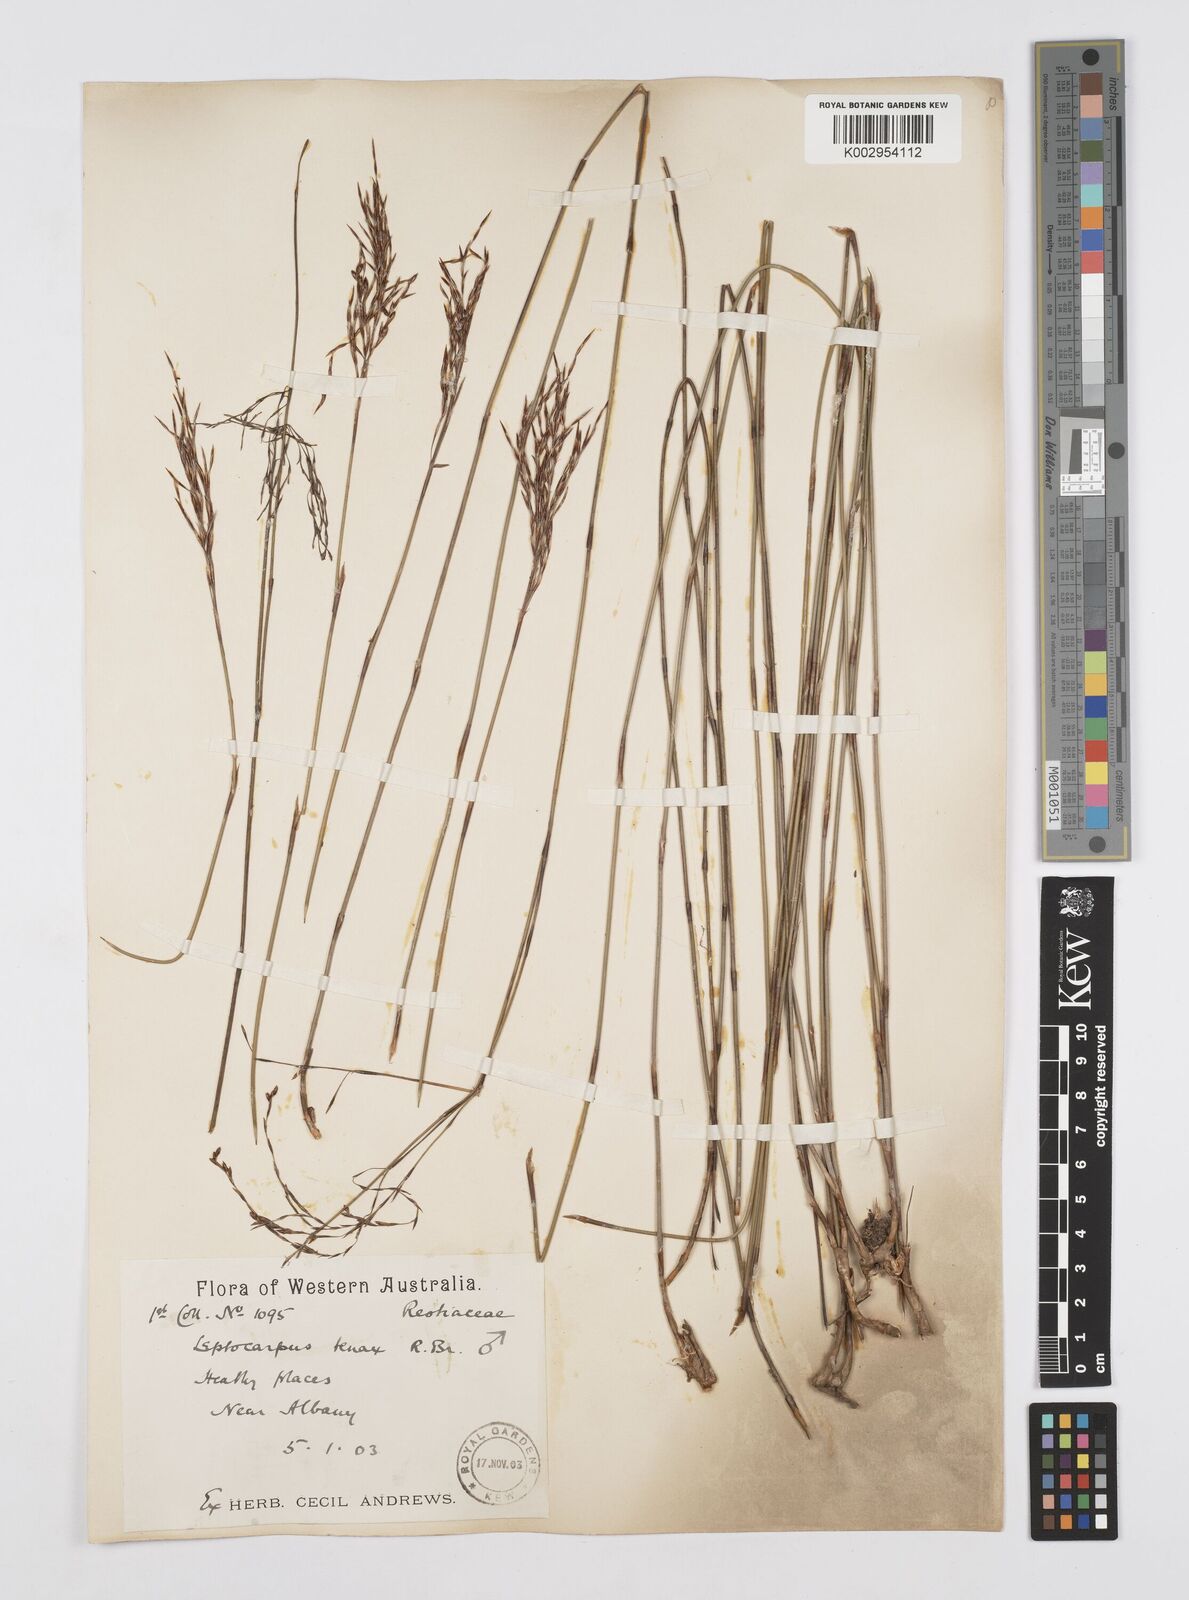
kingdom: Plantae
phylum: Tracheophyta
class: Liliopsida
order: Poales
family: Restionaceae
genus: Leptocarpus
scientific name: Leptocarpus tenax
